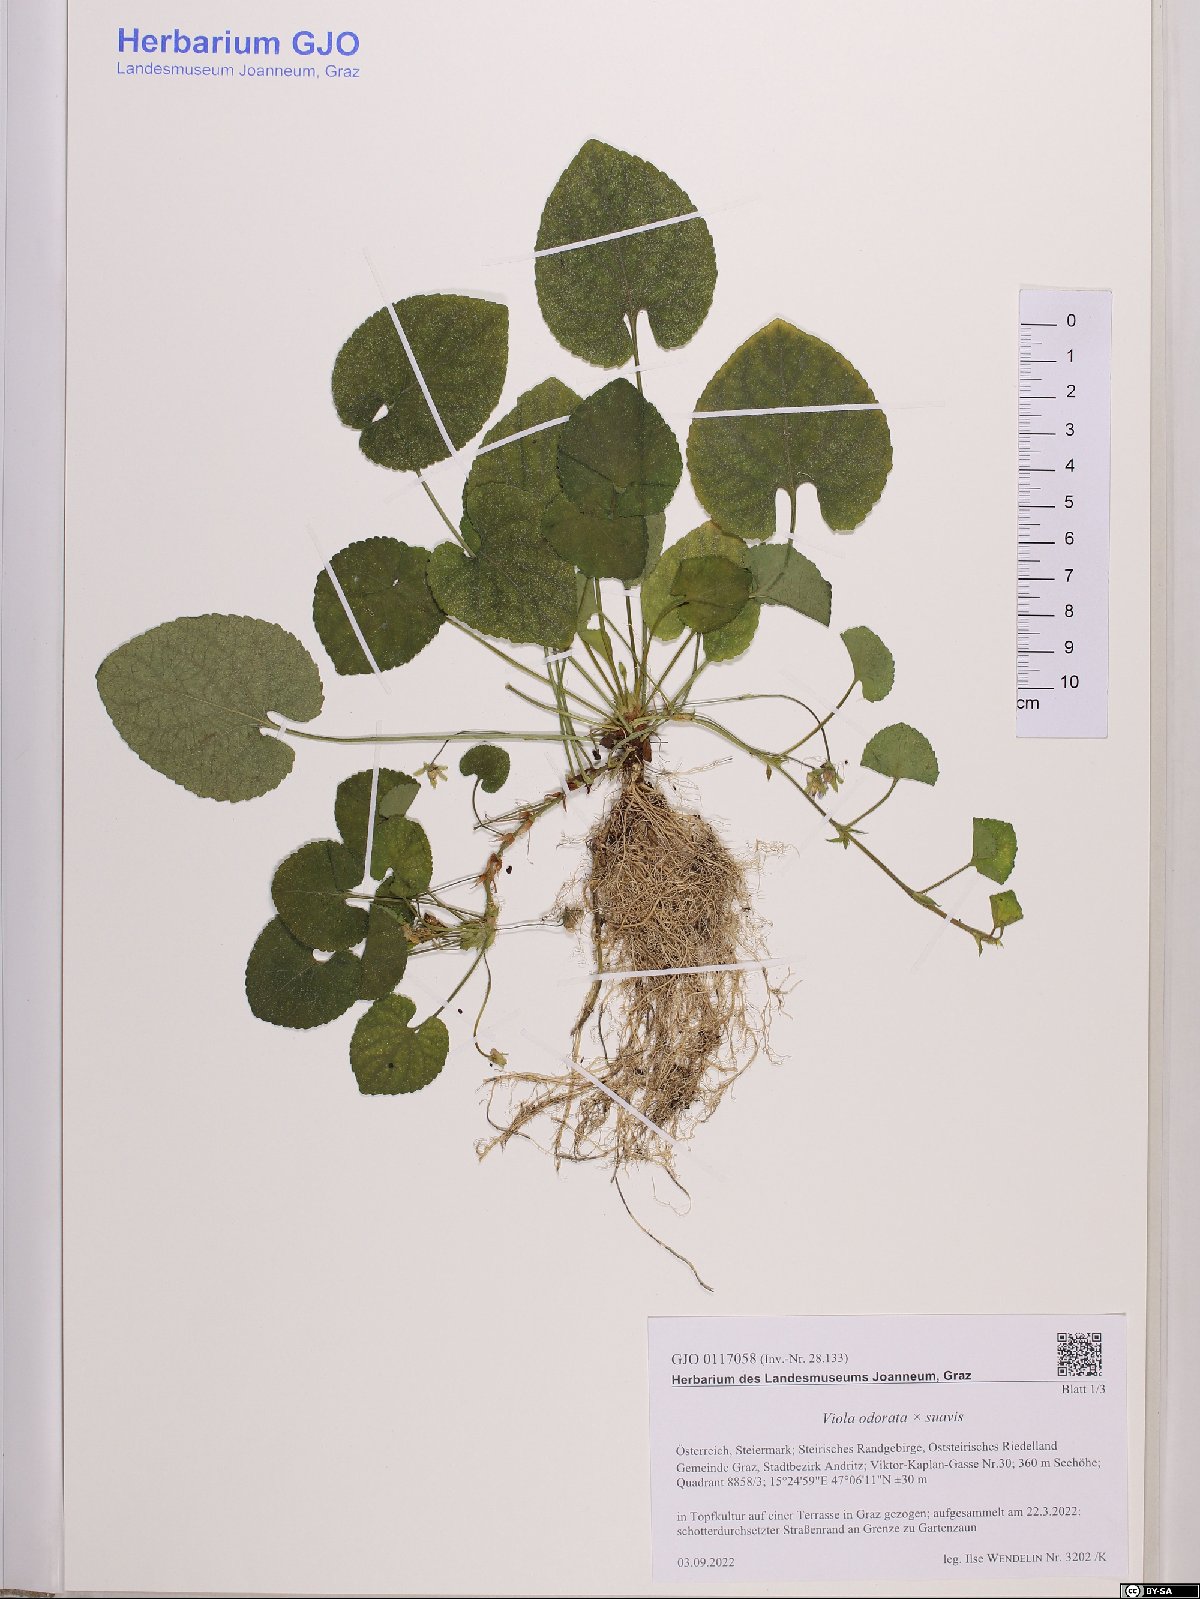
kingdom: Plantae
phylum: Tracheophyta
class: Magnoliopsida
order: Malpighiales
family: Violaceae
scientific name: Violaceae
